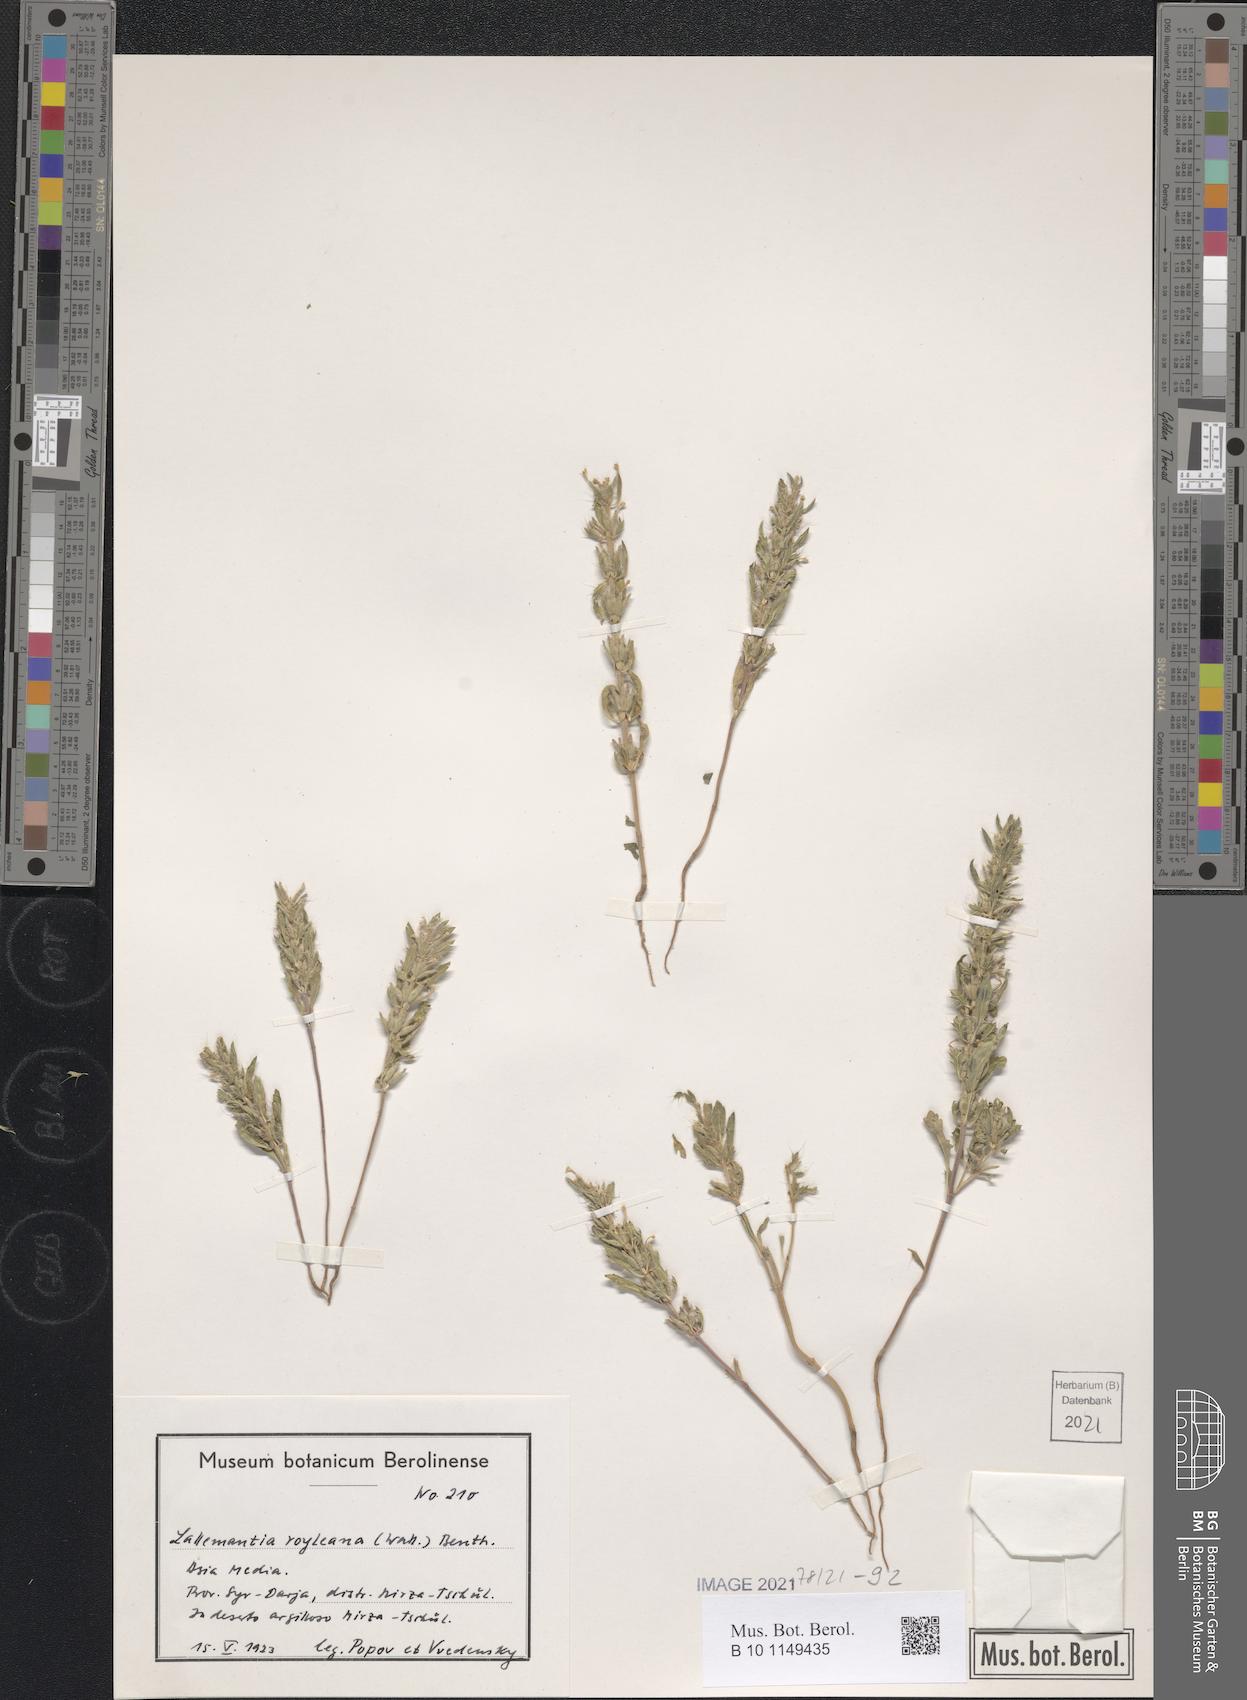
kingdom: Plantae
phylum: Tracheophyta
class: Magnoliopsida
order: Lamiales
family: Lamiaceae
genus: Lallemantia
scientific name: Lallemantia royleana
